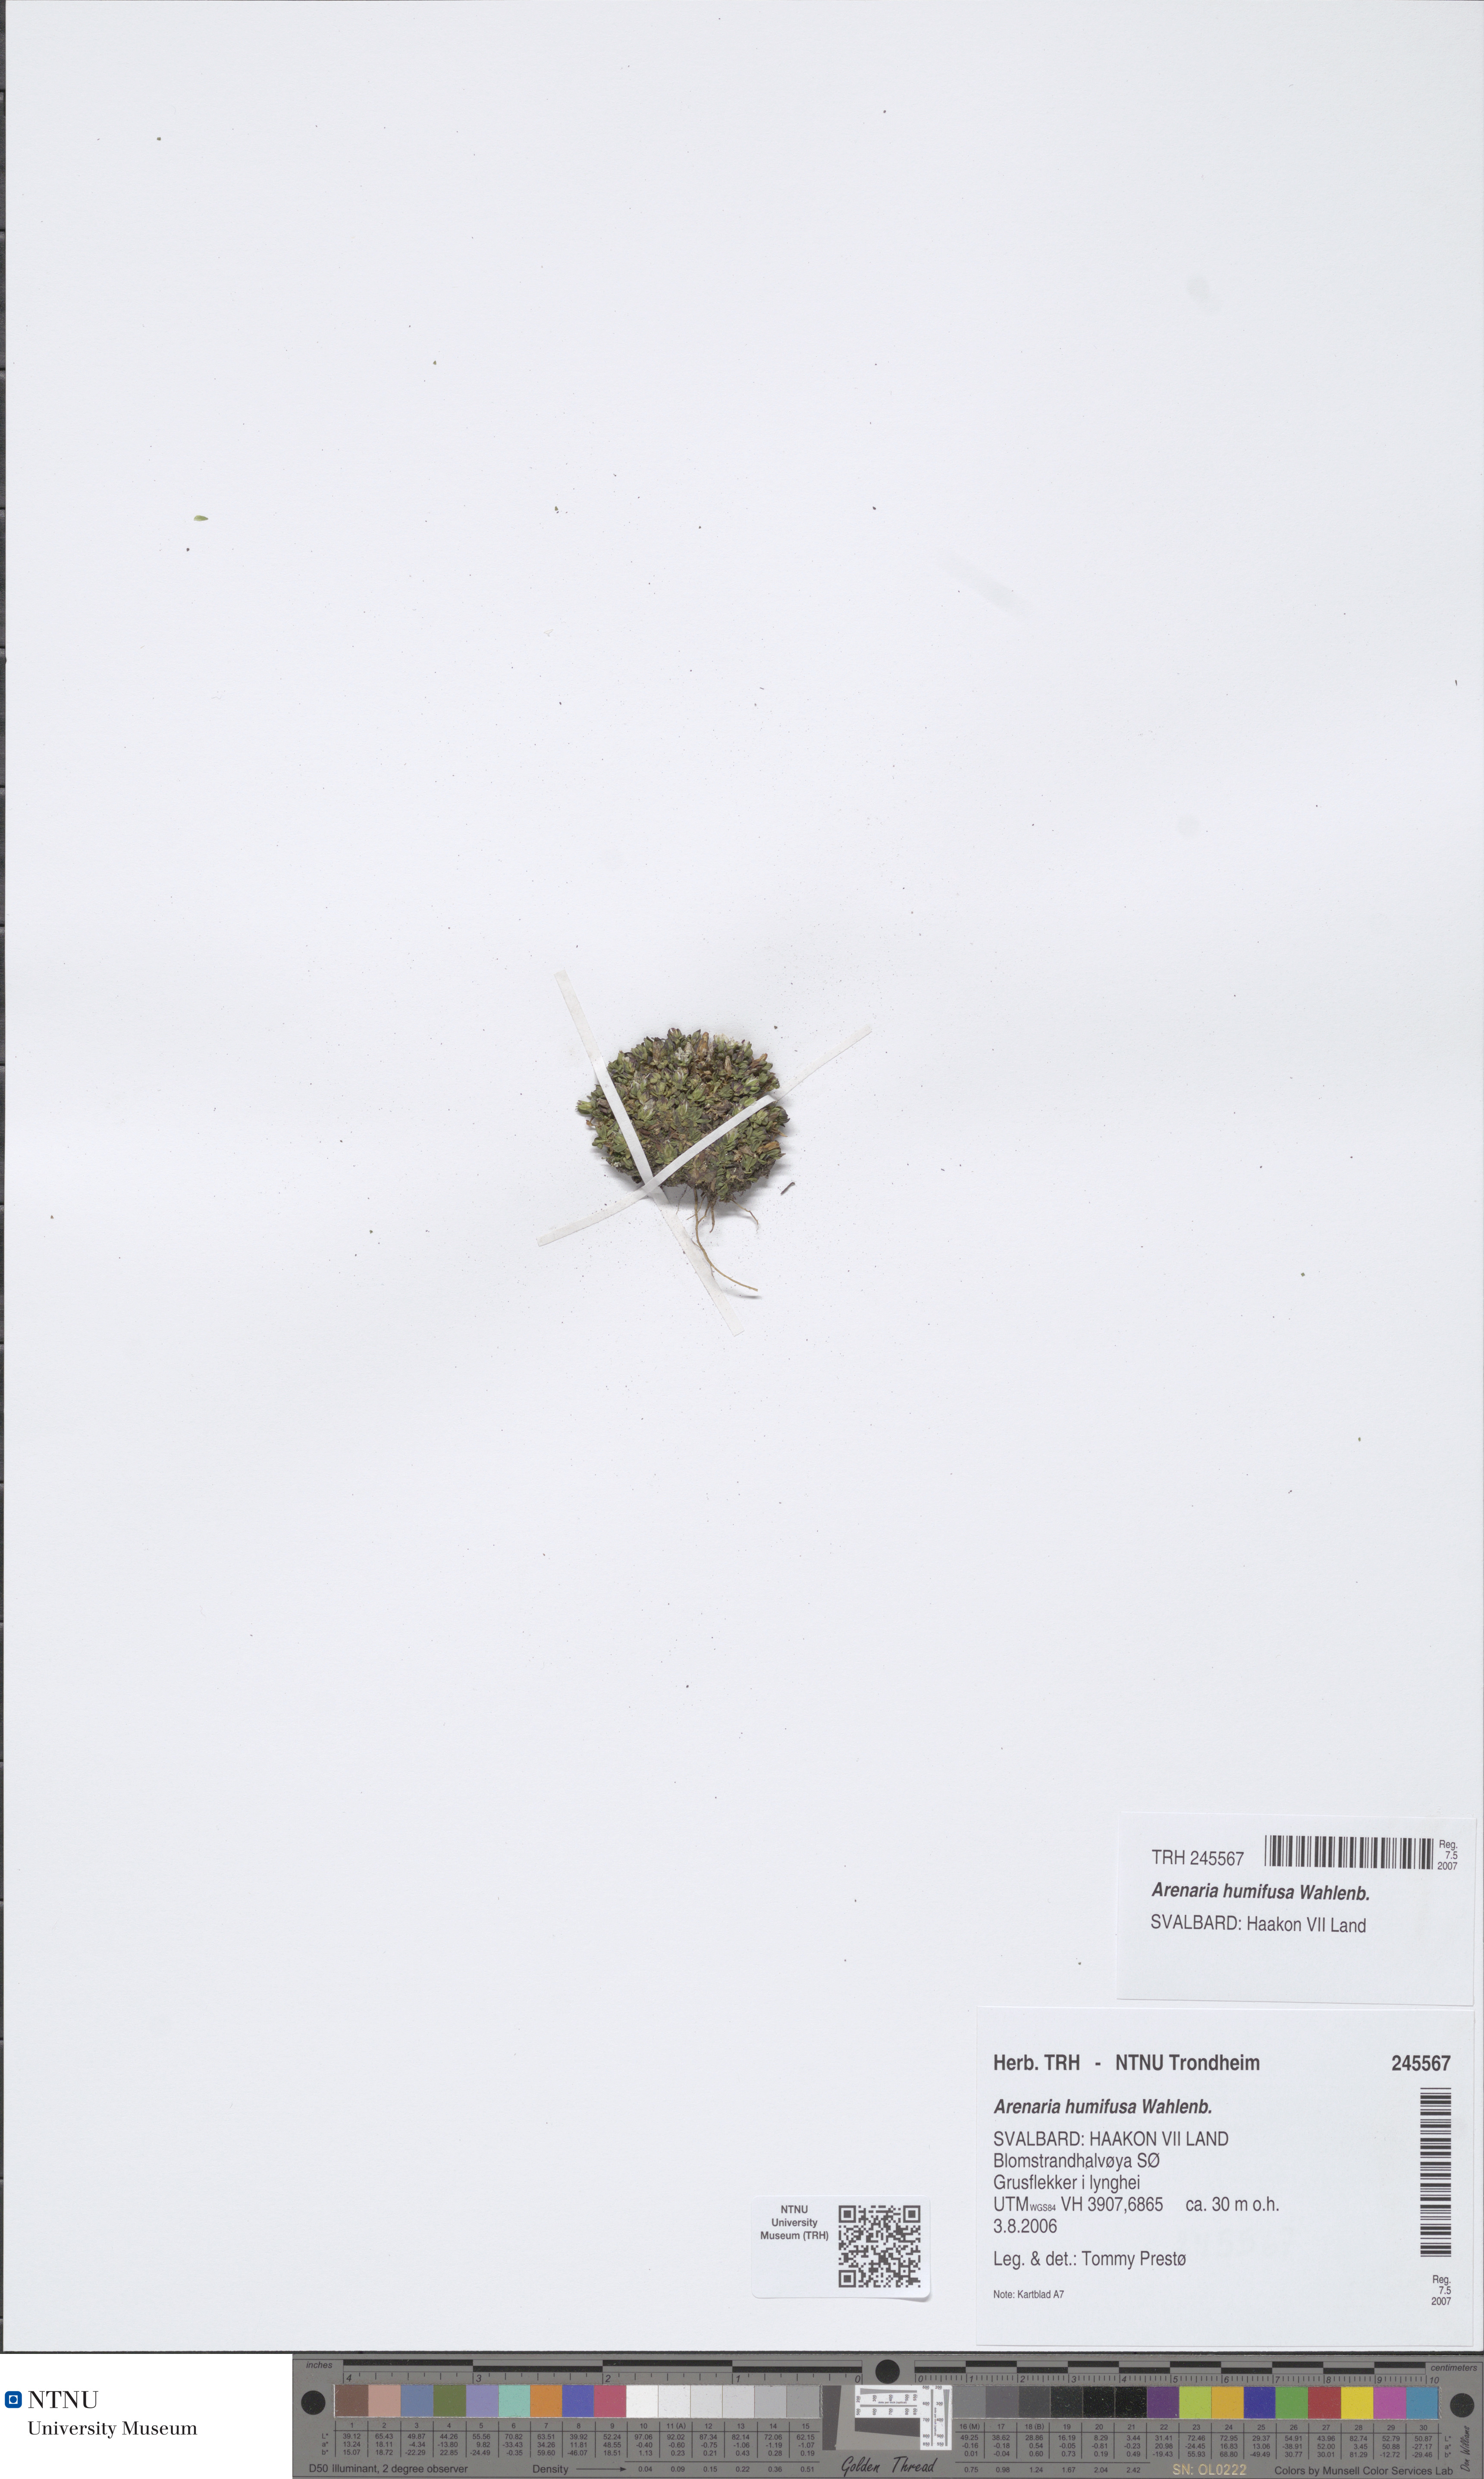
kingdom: Plantae
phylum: Tracheophyta
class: Magnoliopsida
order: Caryophyllales
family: Caryophyllaceae
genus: Arenaria
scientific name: Arenaria humifusa
